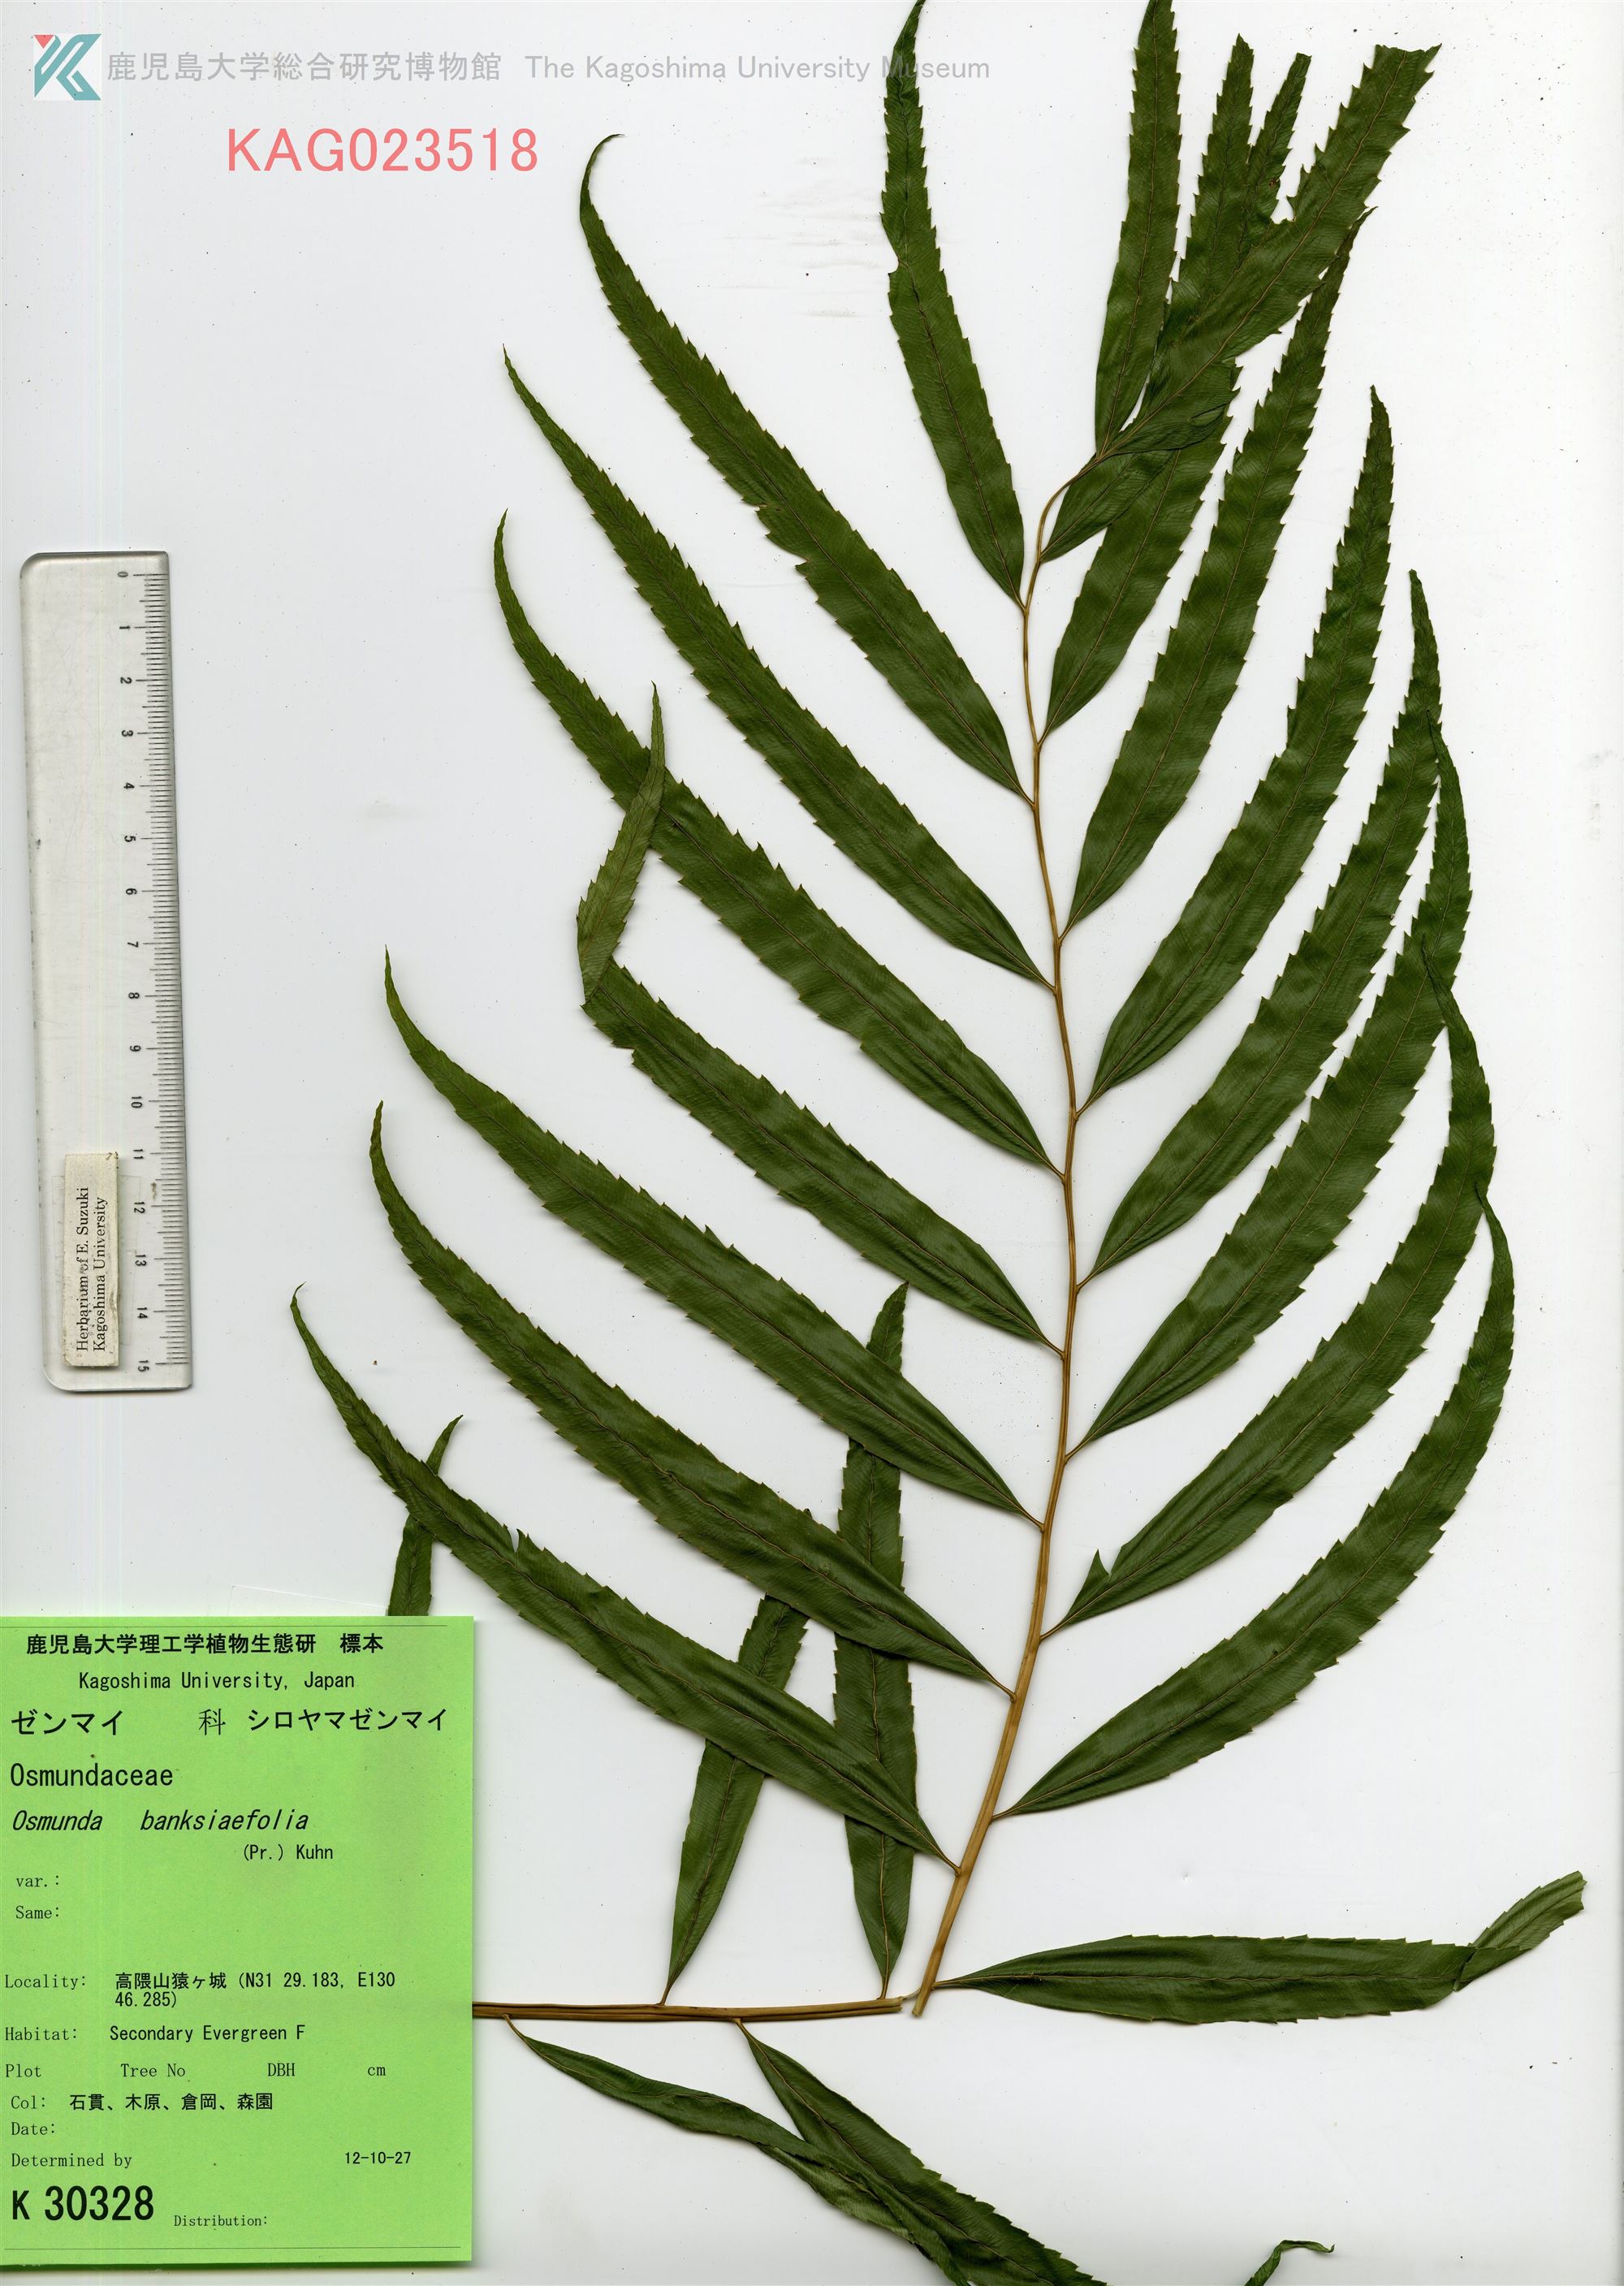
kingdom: Plantae
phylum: Tracheophyta
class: Polypodiopsida
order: Osmundales
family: Osmundaceae
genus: Plenasium
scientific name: Plenasium banksiifolium
